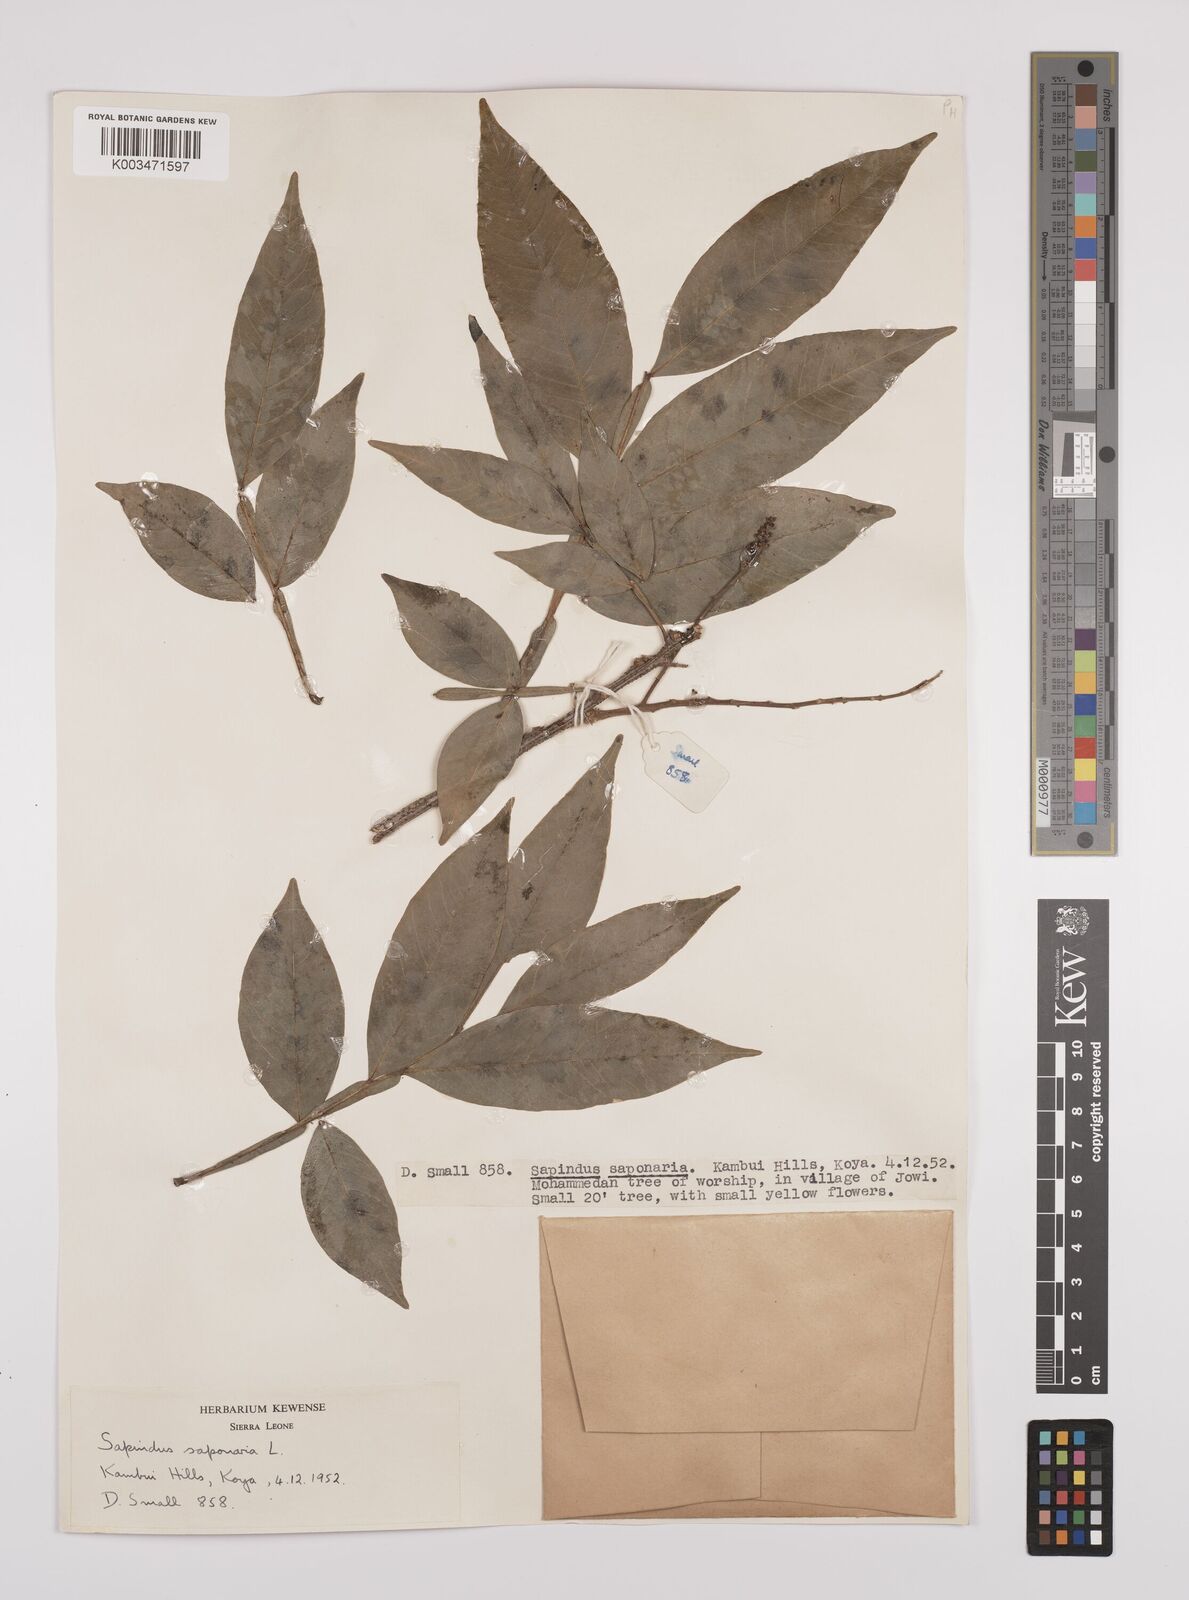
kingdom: Plantae
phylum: Tracheophyta
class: Magnoliopsida
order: Sapindales
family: Sapindaceae
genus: Sapindus
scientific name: Sapindus
